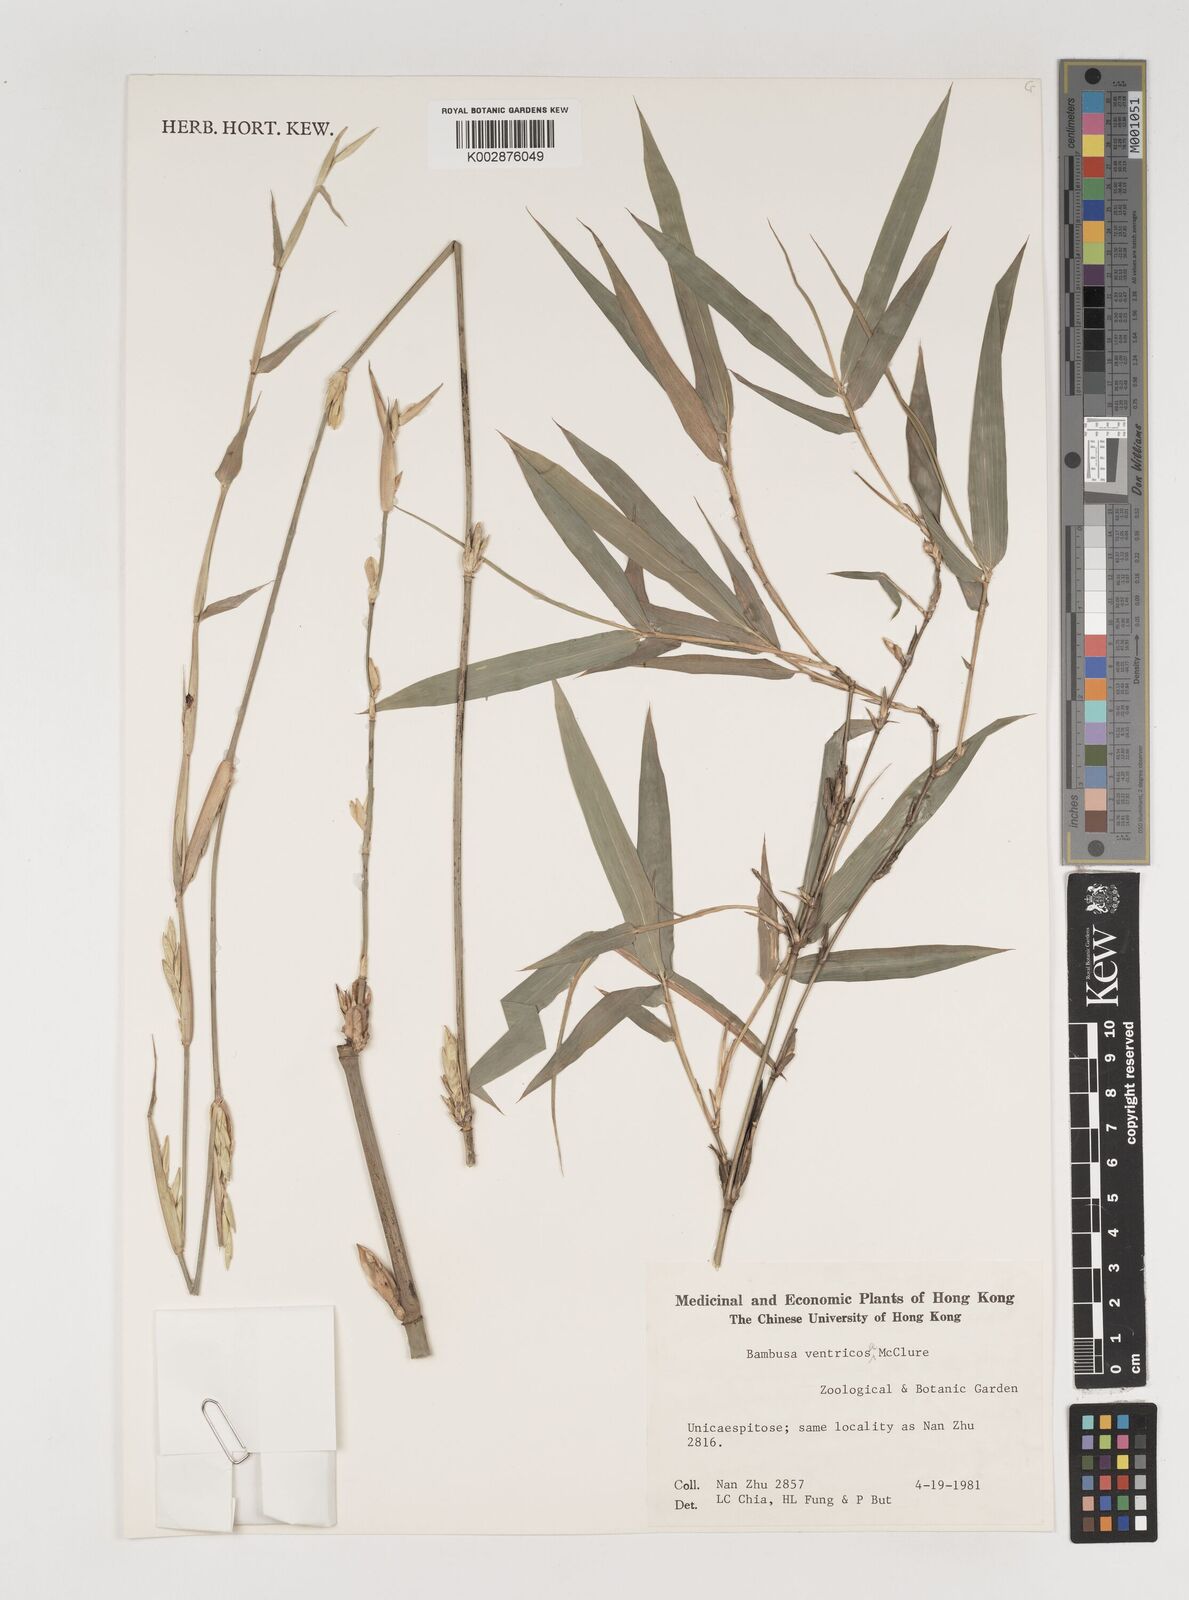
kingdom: Plantae
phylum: Tracheophyta
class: Liliopsida
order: Poales
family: Poaceae
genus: Bambusa
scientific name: Bambusa ventricosa
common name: Buddha bamboo
